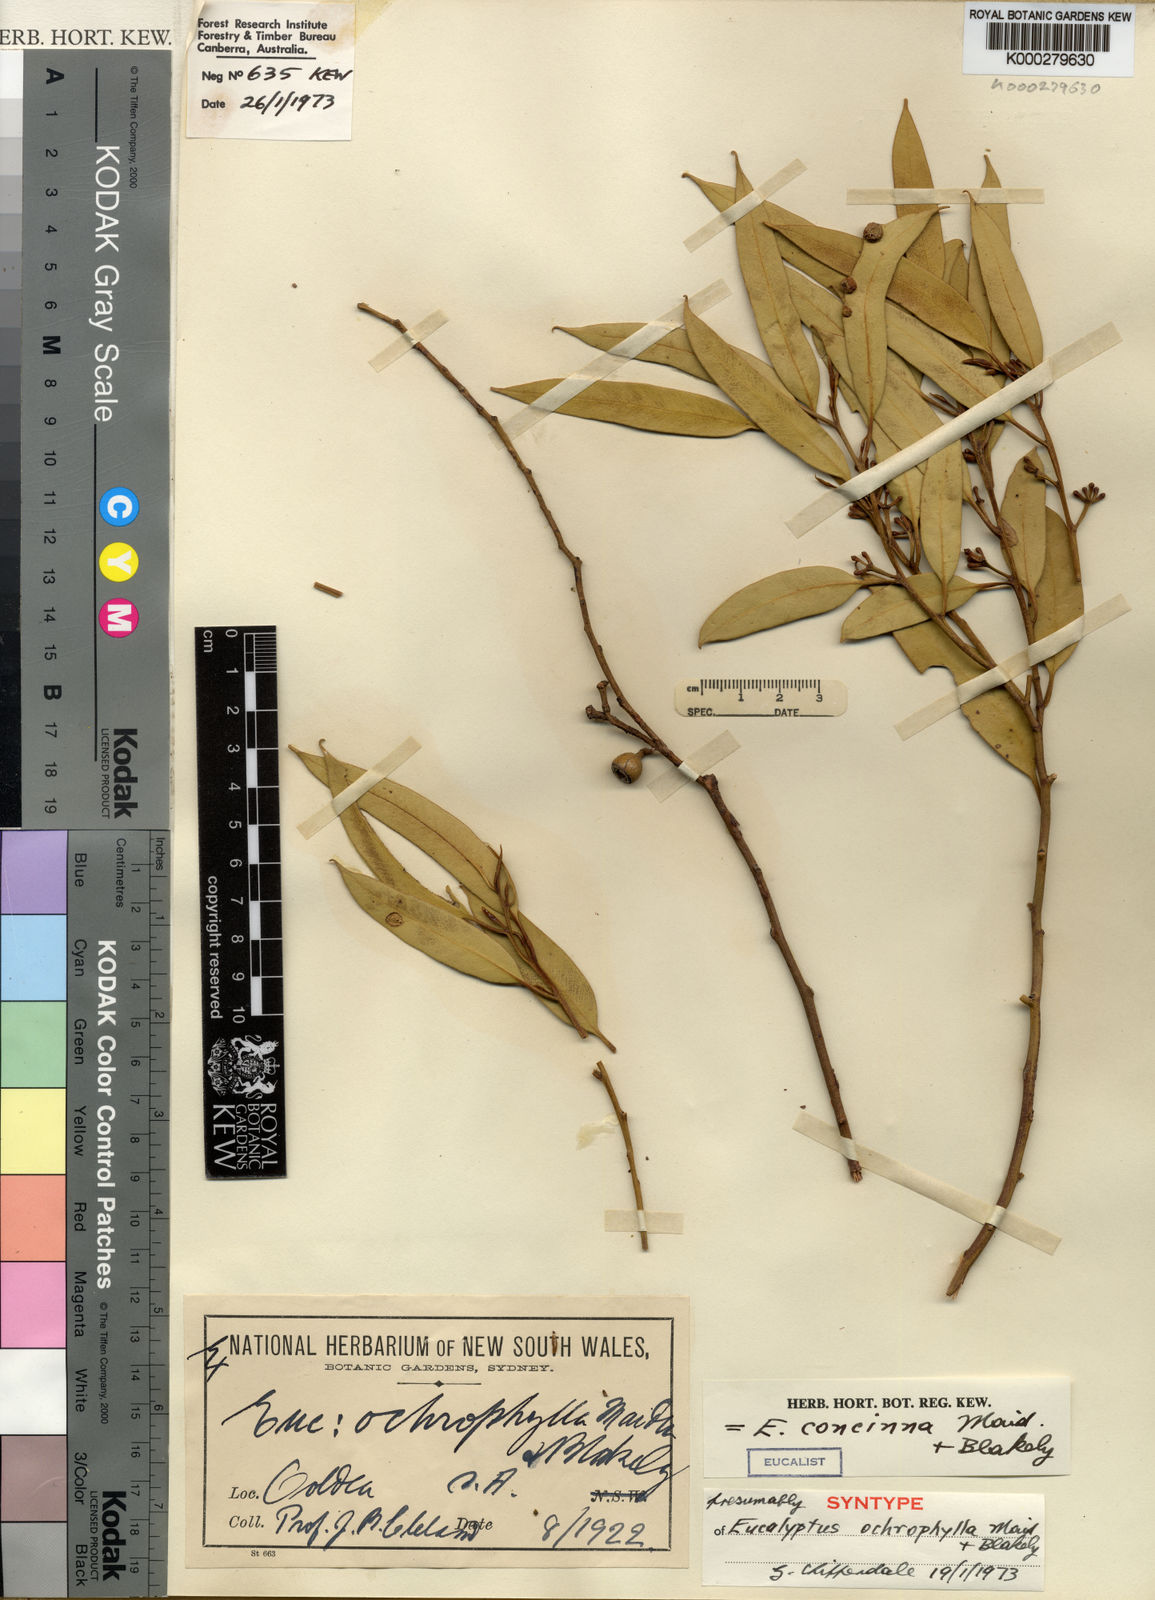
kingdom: Plantae
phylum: Tracheophyta
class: Magnoliopsida
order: Myrtales
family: Myrtaceae
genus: Eucalyptus
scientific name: Eucalyptus concinna
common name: Desert gum
